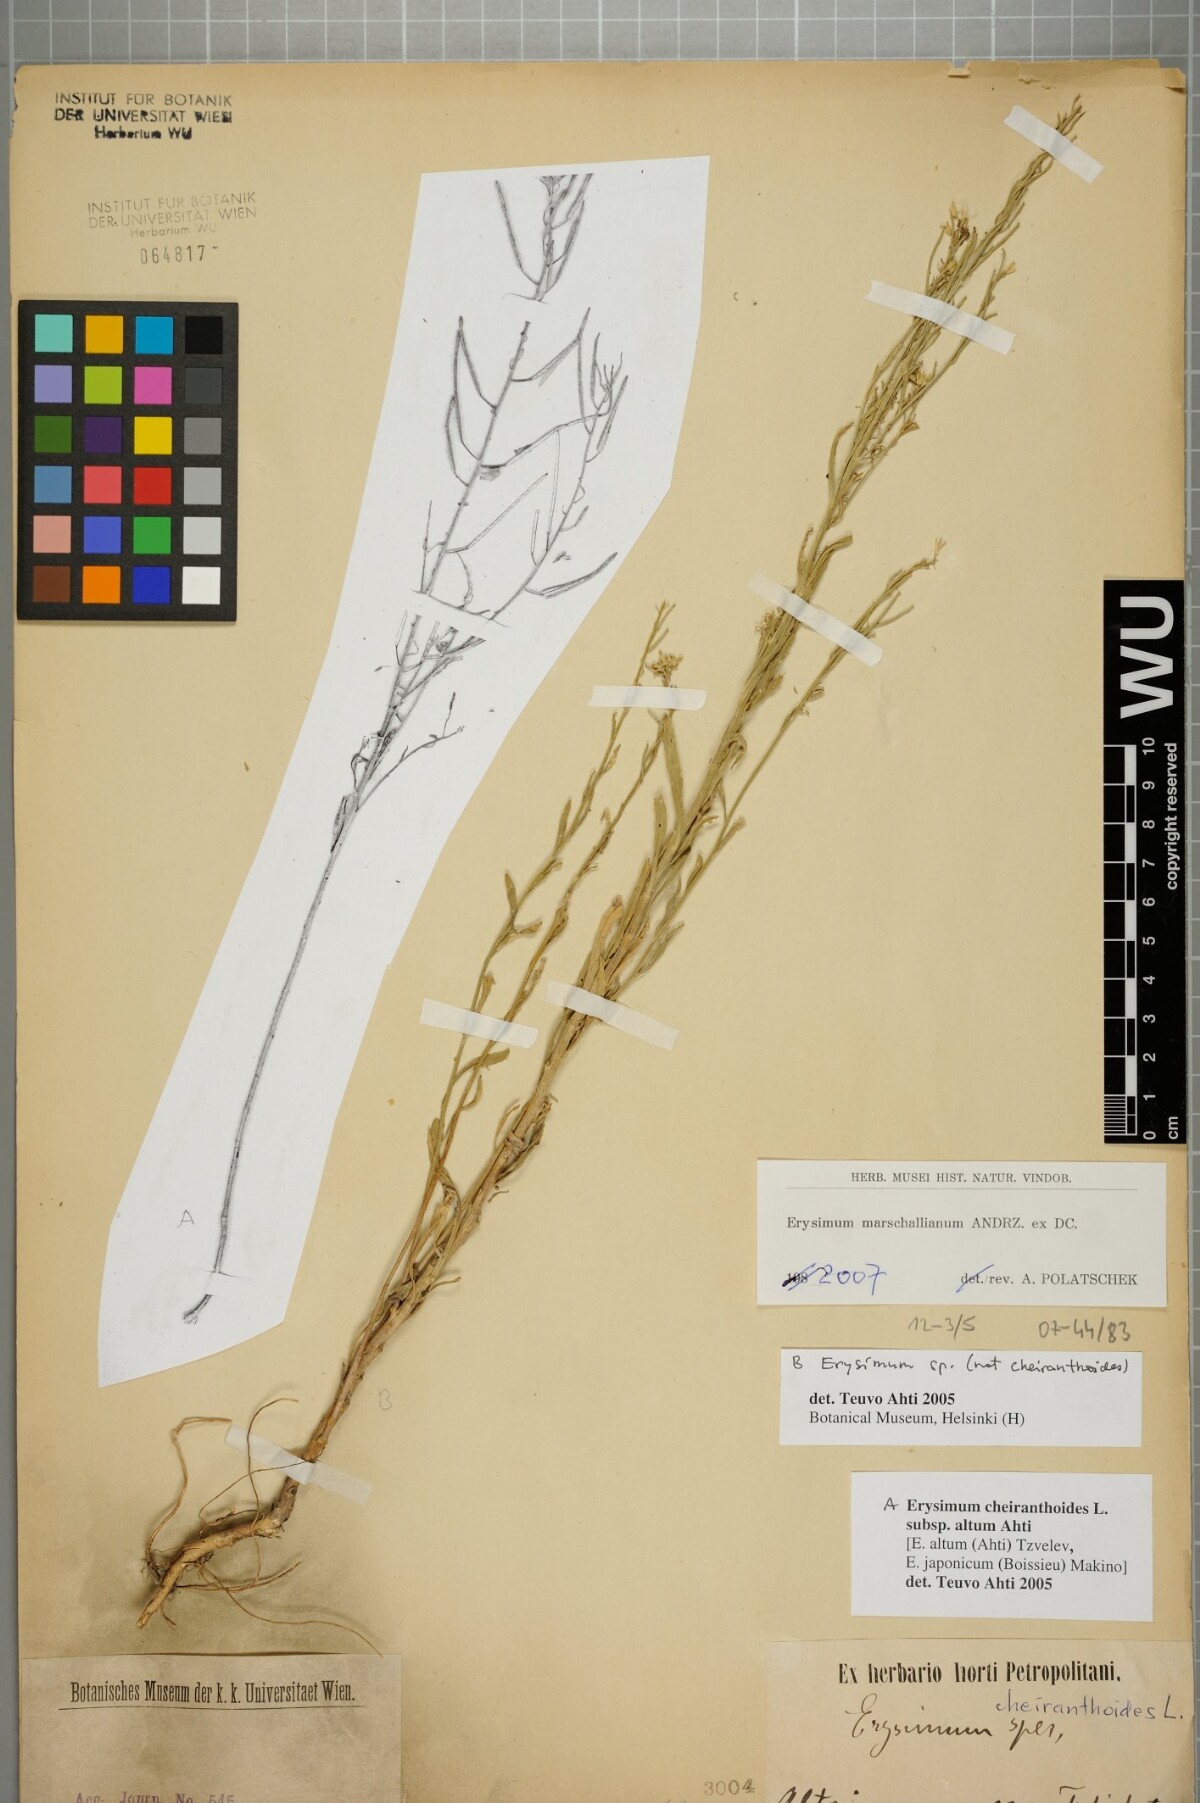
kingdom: Plantae
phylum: Tracheophyta
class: Magnoliopsida
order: Brassicales
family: Brassicaceae
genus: Erysimum
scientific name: Erysimum marschallianum
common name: Hard wallflower
